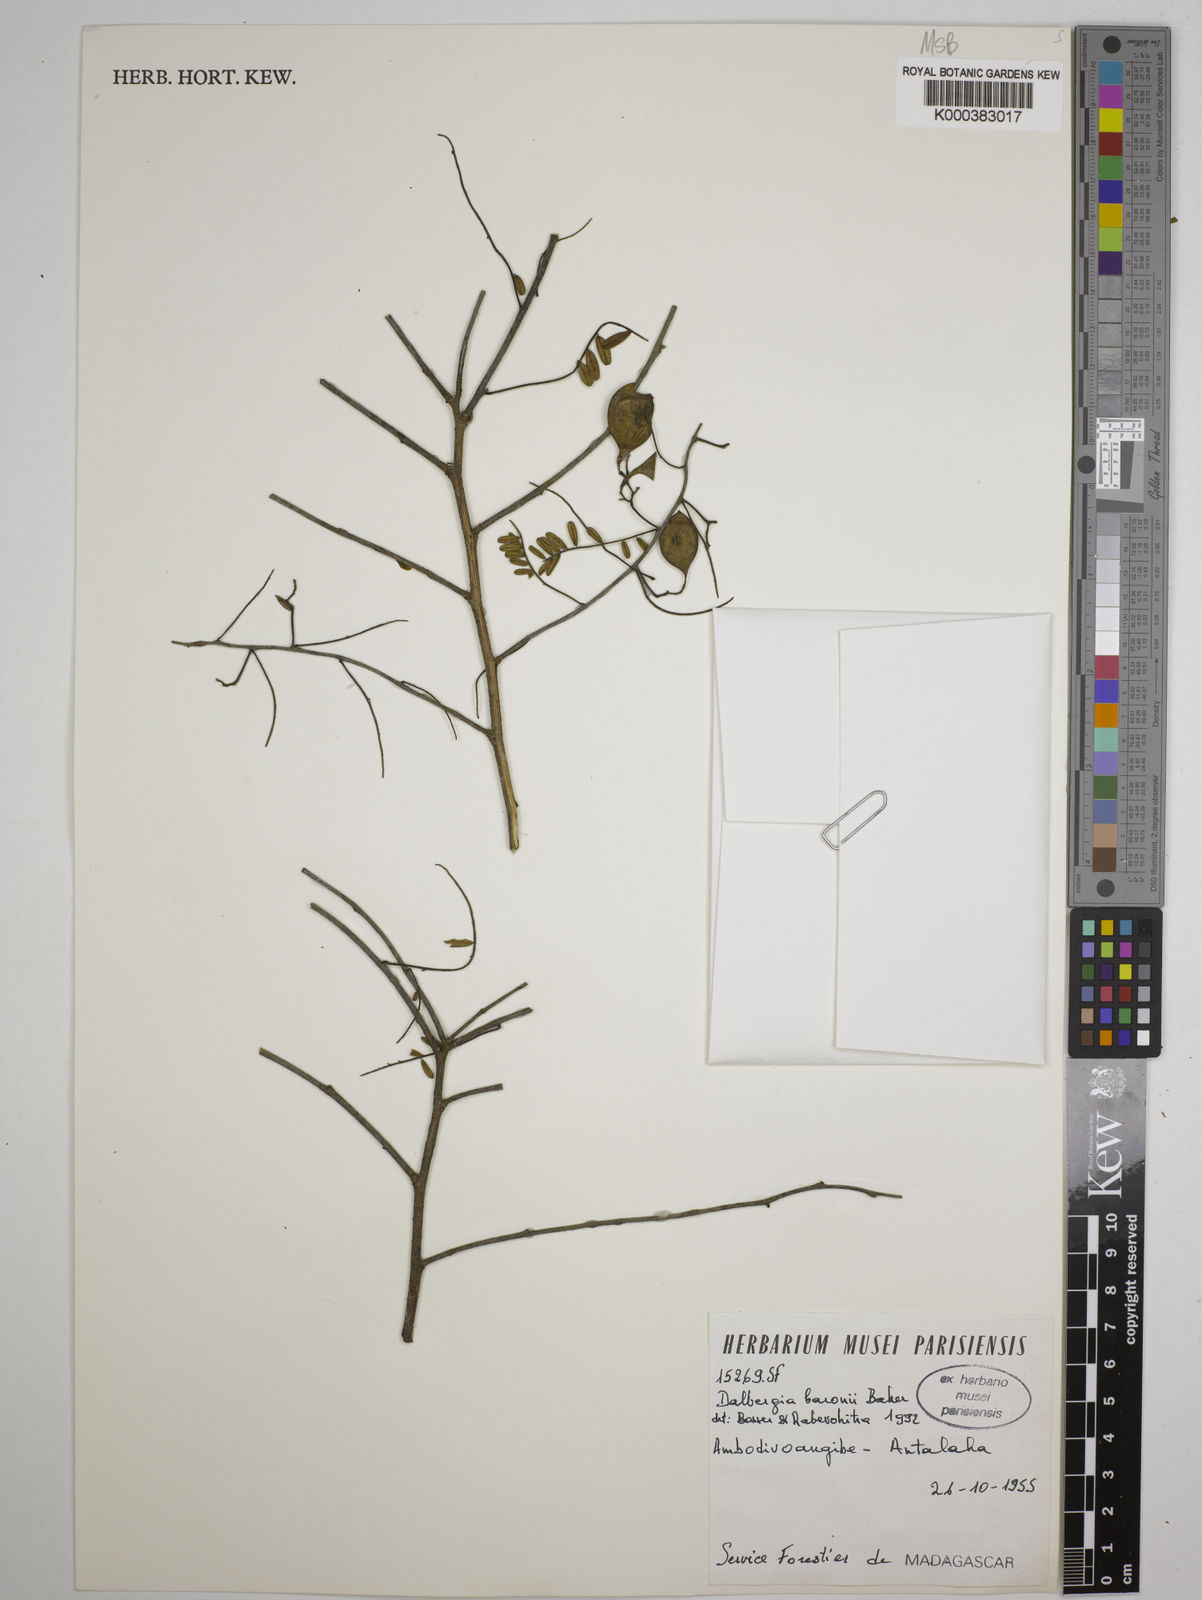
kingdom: Plantae
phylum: Tracheophyta
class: Magnoliopsida
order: Fabales
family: Fabaceae
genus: Dalbergia
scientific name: Dalbergia baronii
